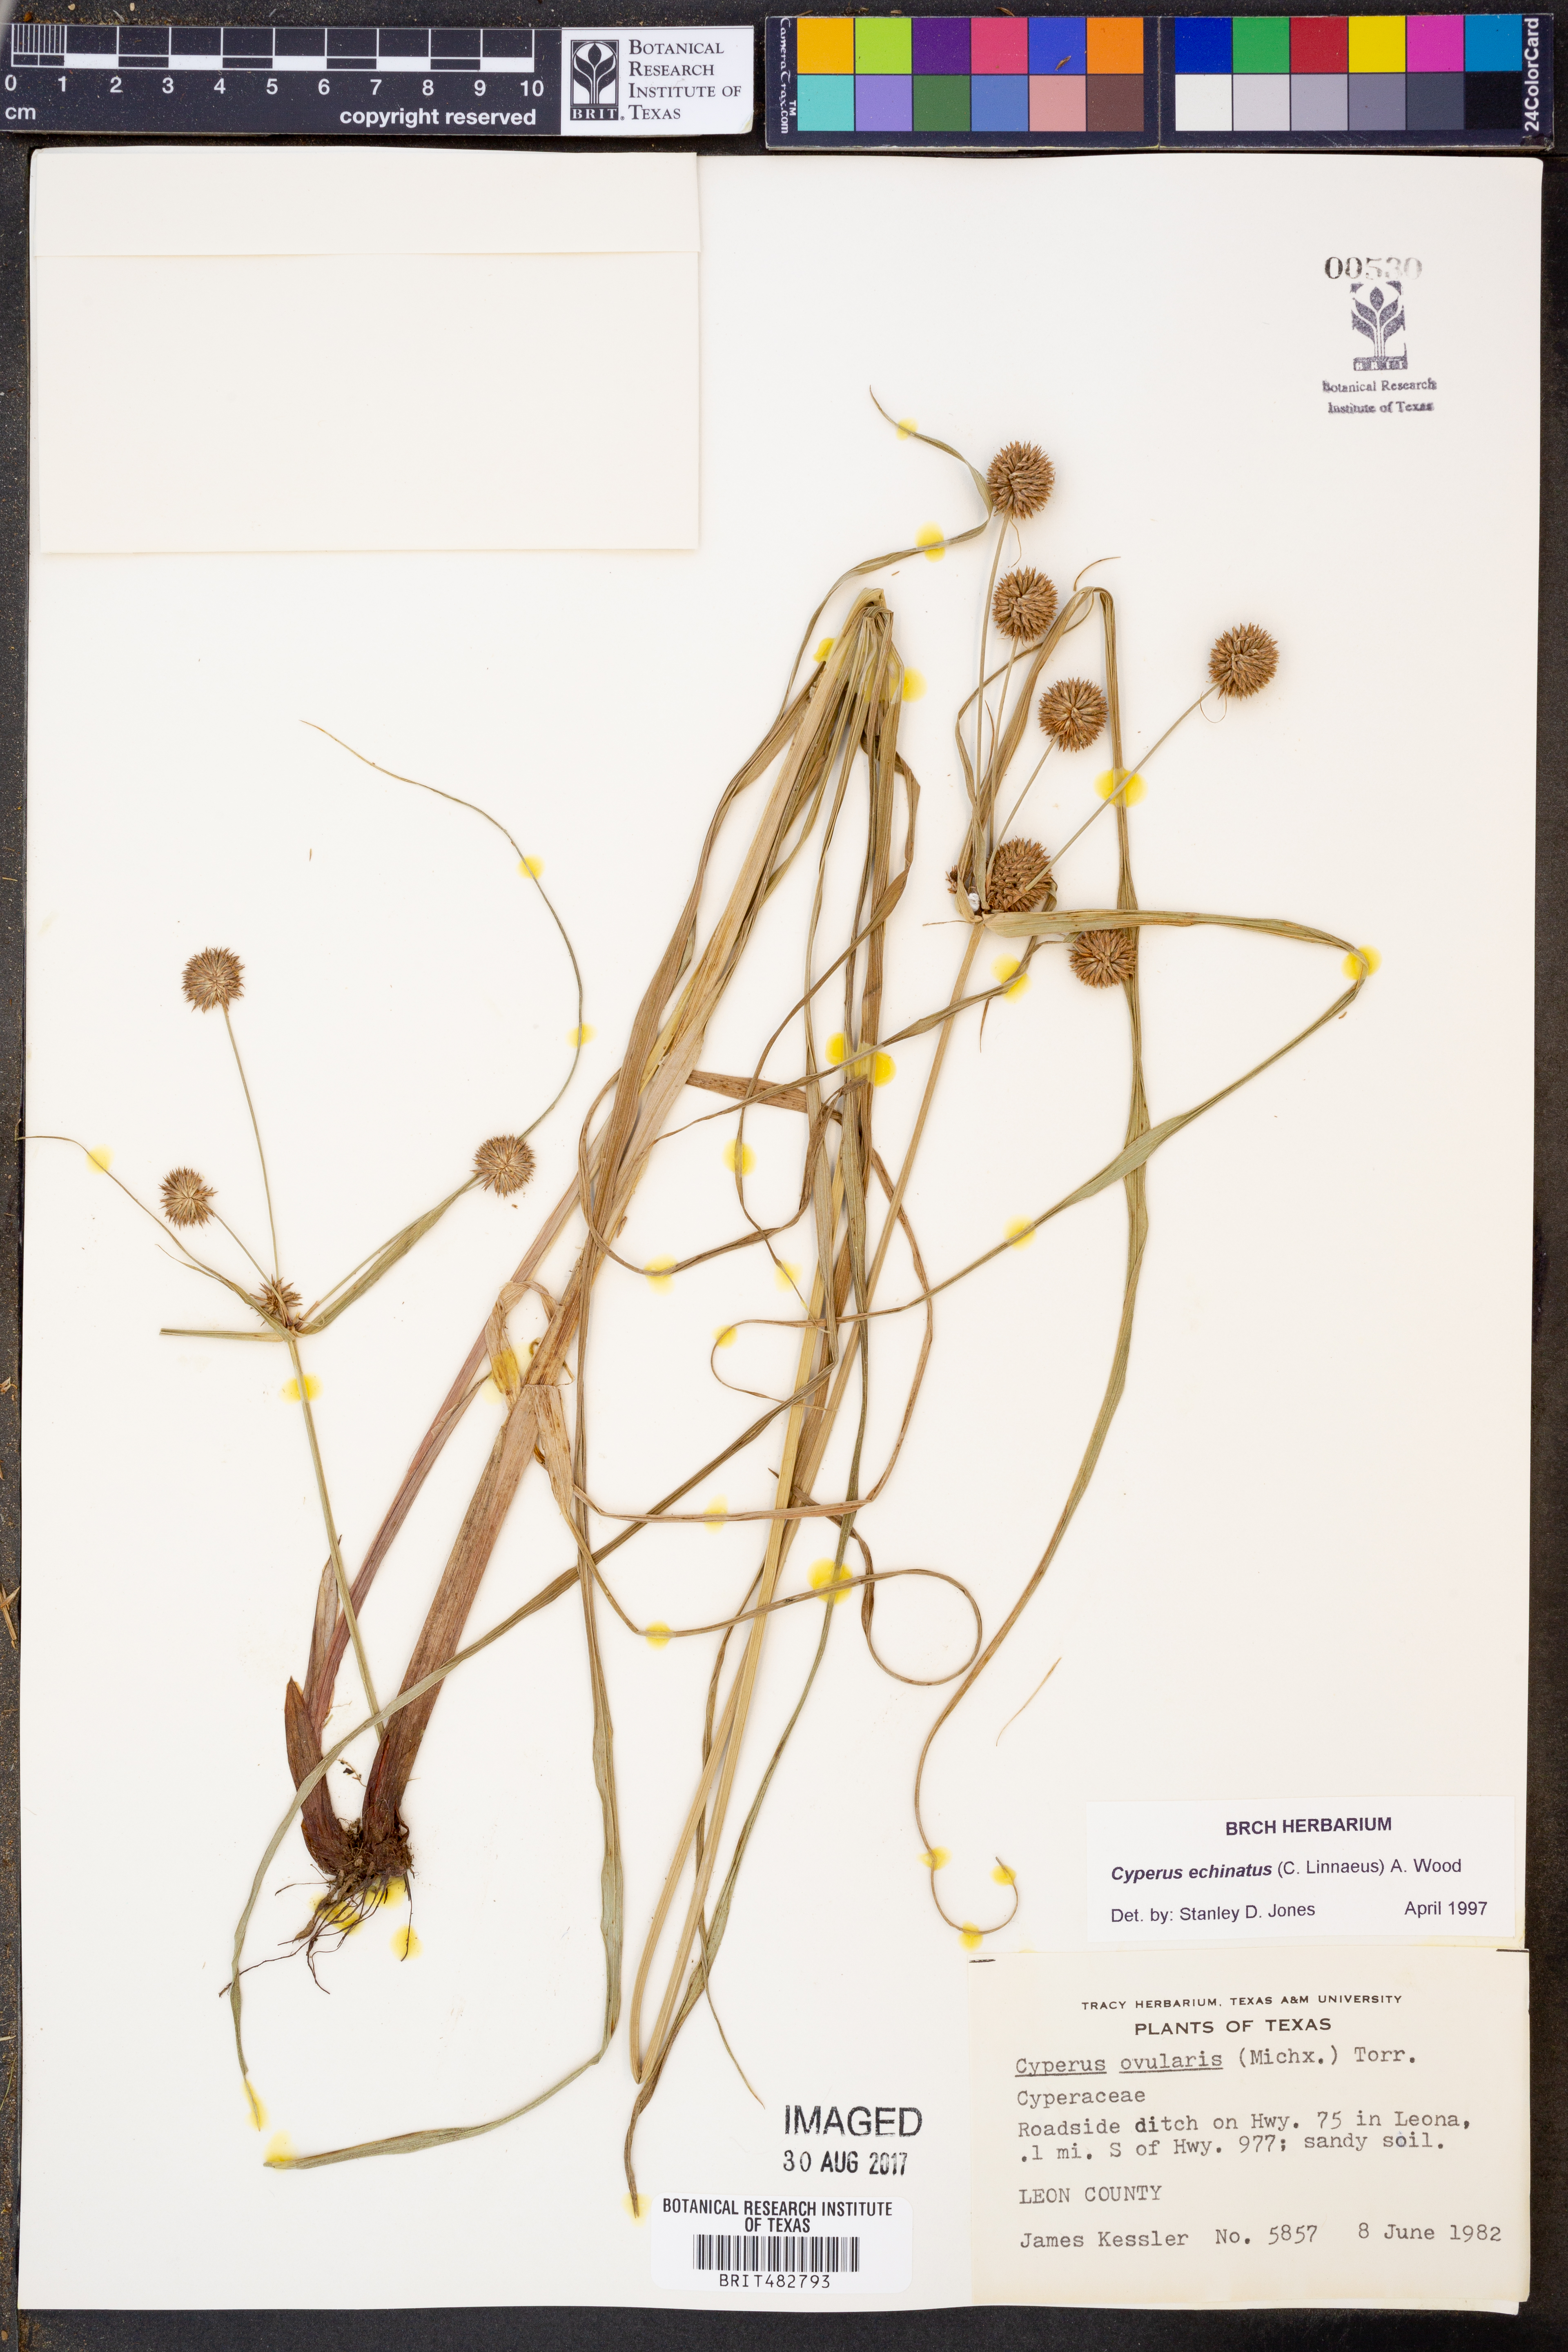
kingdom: Plantae
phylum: Tracheophyta
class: Liliopsida
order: Poales
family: Cyperaceae
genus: Cyperus
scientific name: Cyperus echinatus
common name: Teasel sedge
